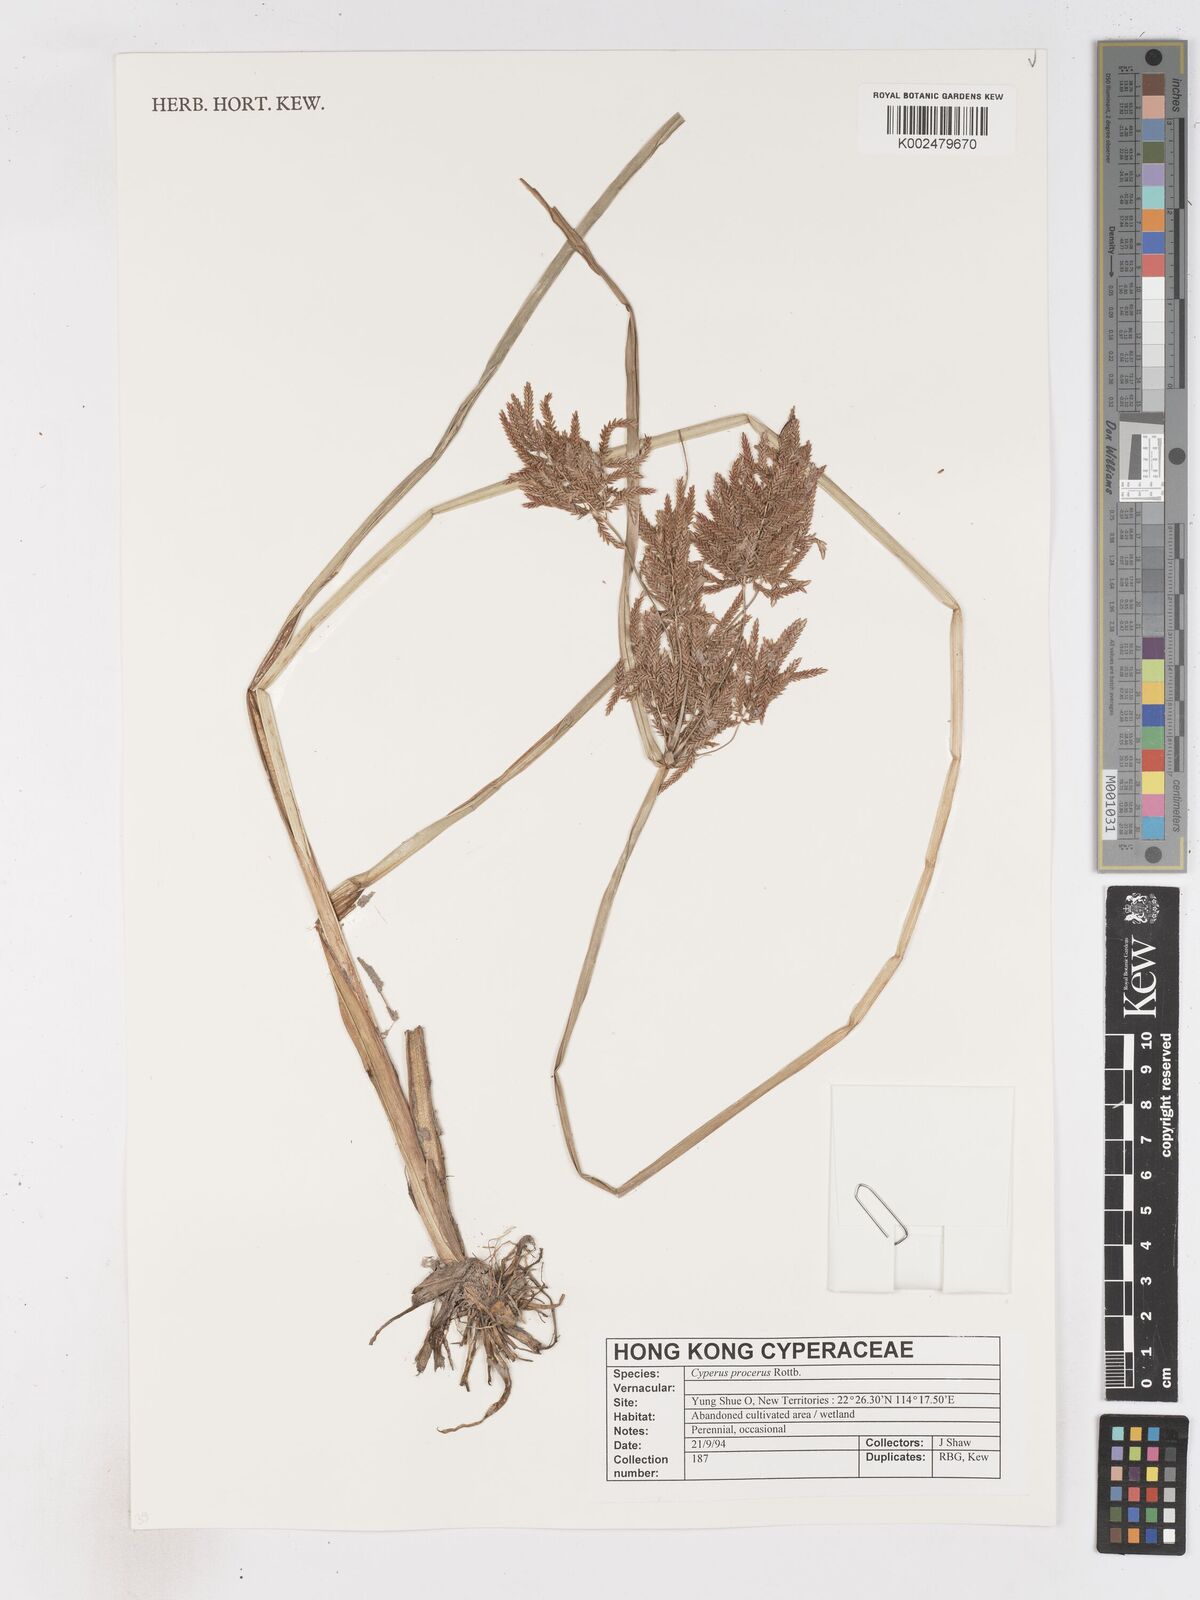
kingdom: Plantae
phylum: Tracheophyta
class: Liliopsida
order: Poales
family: Cyperaceae
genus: Cyperus
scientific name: Cyperus procerus
